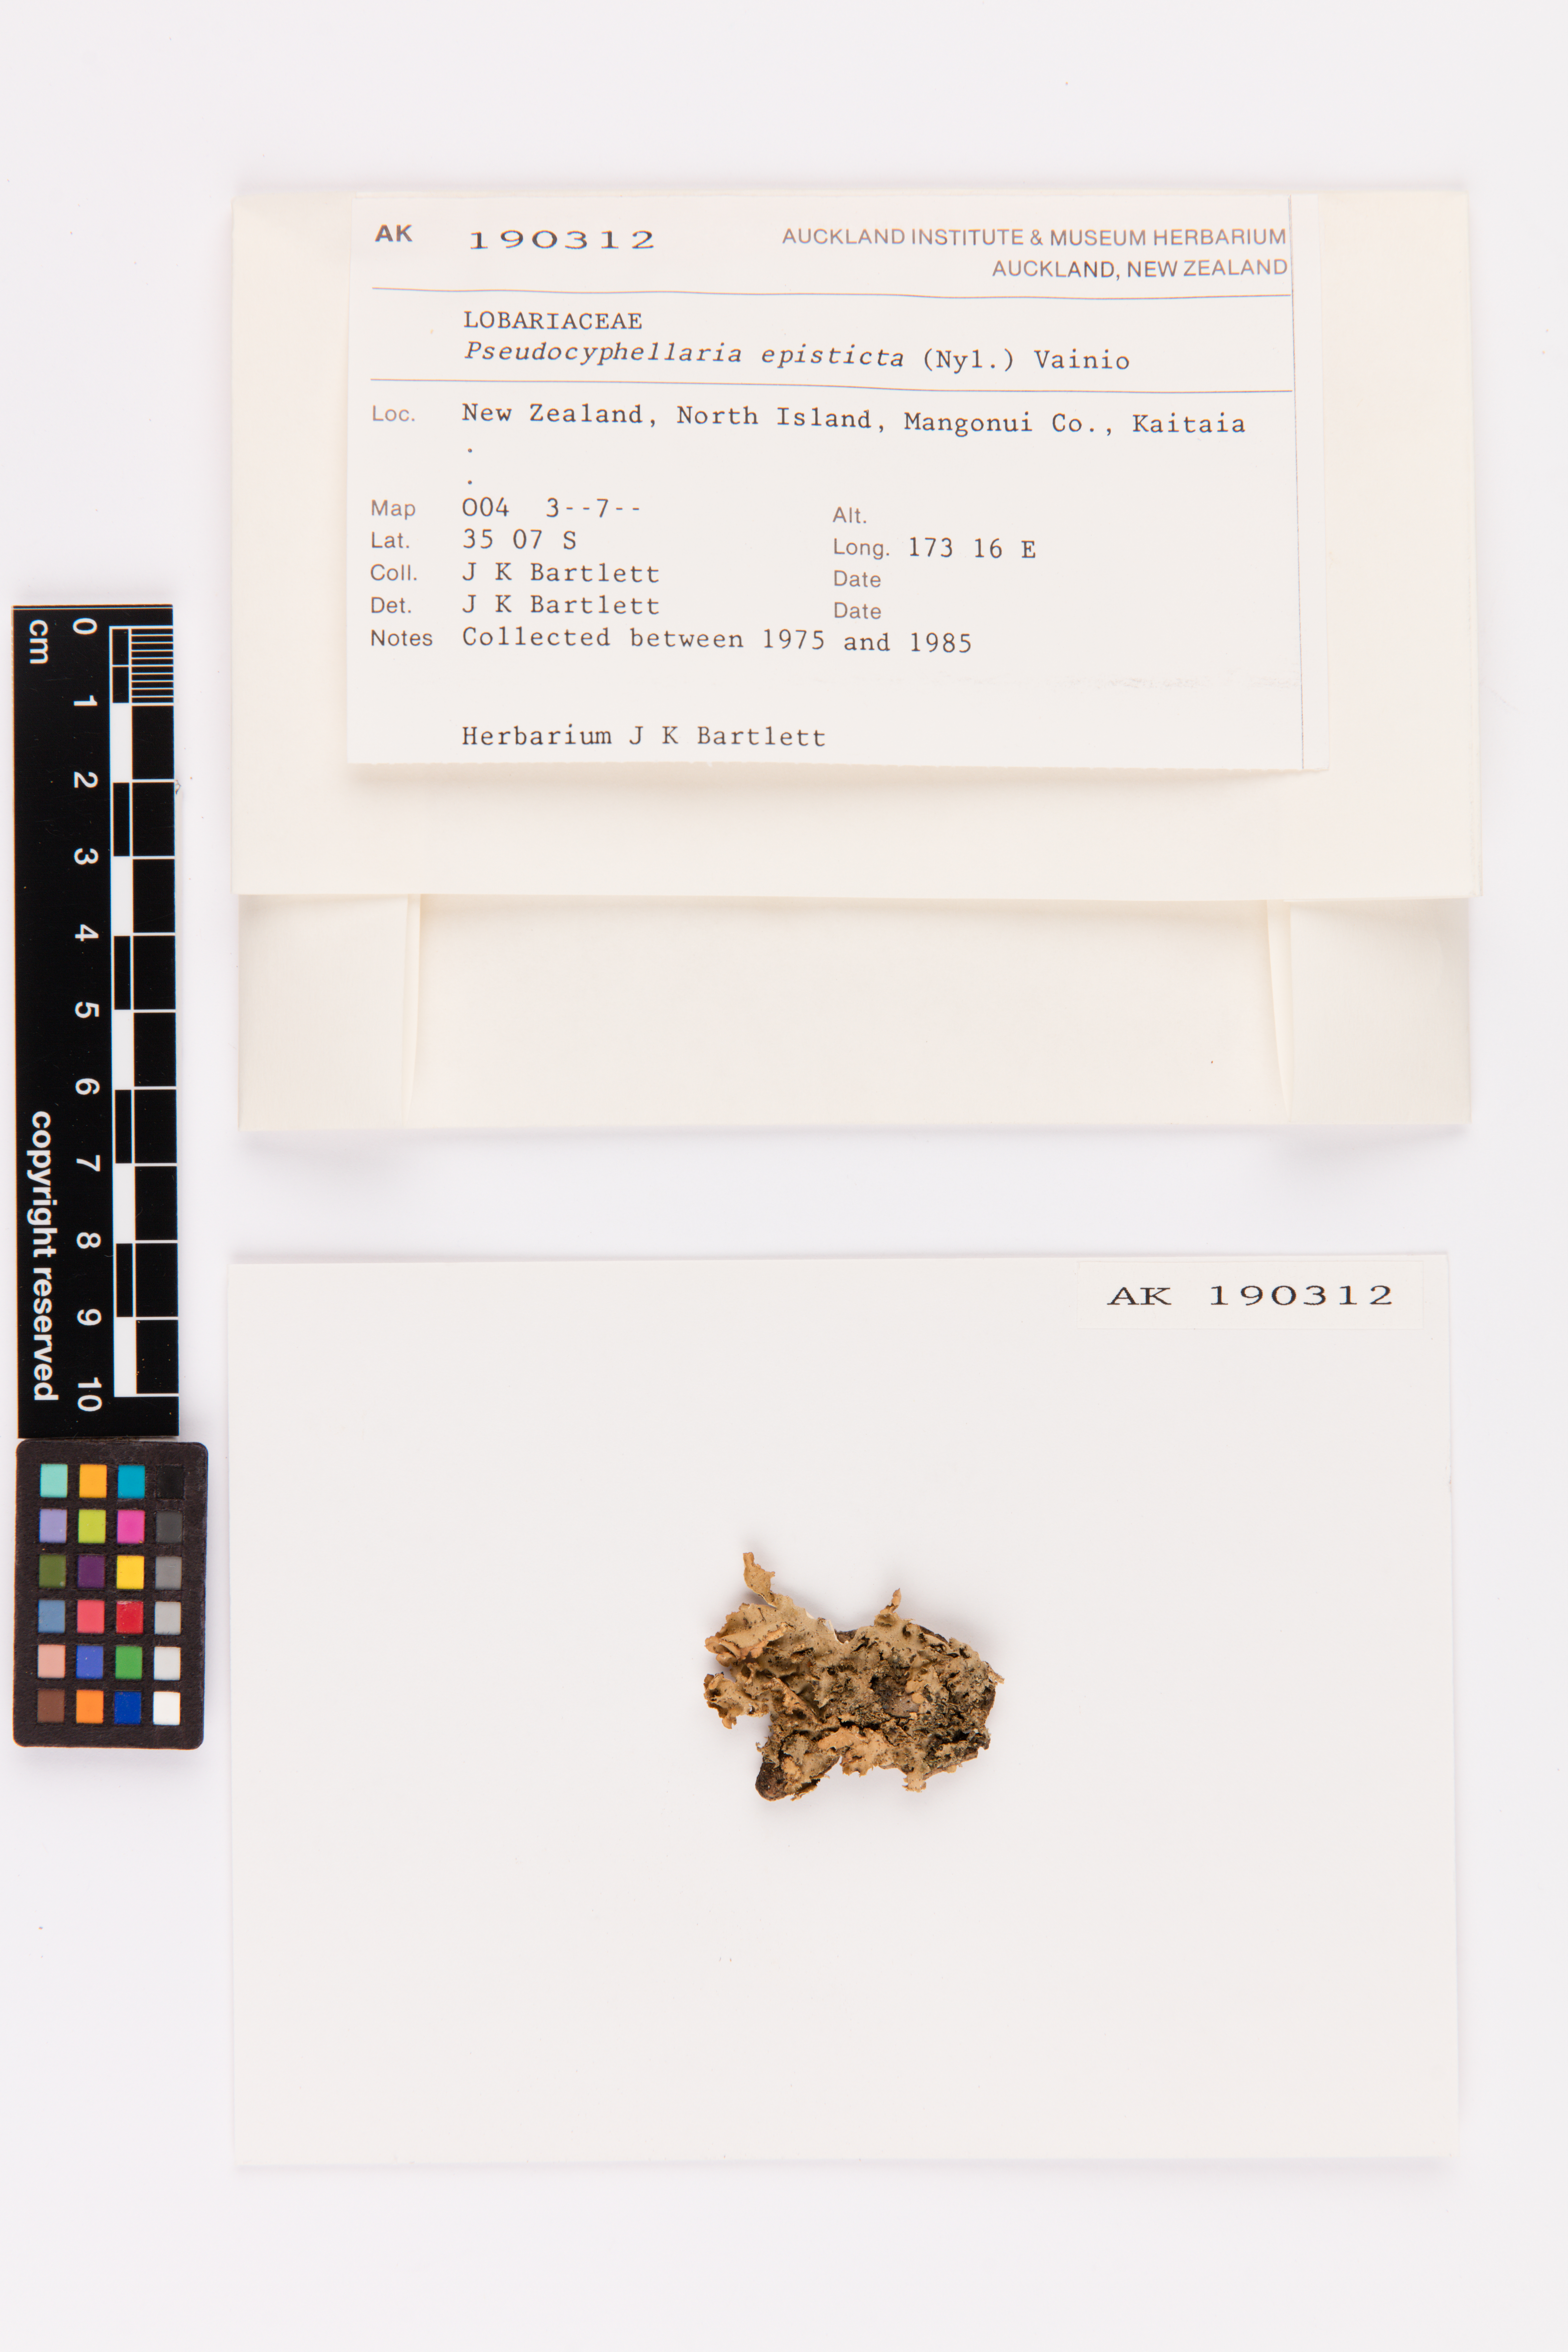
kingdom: Fungi
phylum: Ascomycota
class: Lecanoromycetes
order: Peltigerales
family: Lobariaceae
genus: Pseudocyphellaria
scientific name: Pseudocyphellaria episticta
